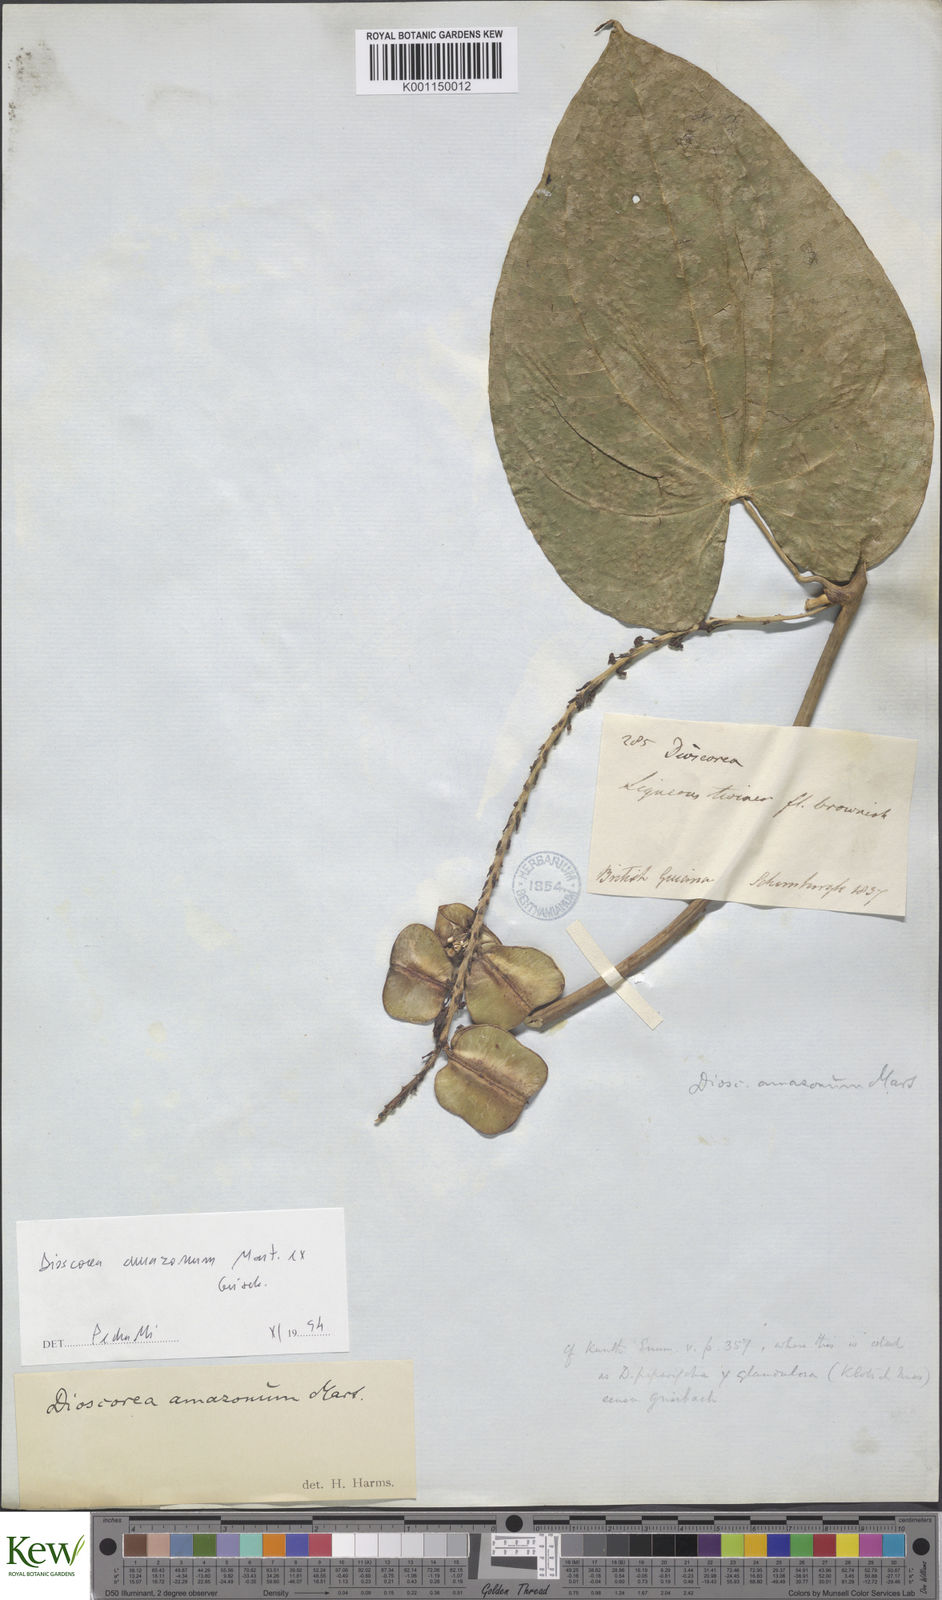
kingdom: Plantae
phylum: Tracheophyta
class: Liliopsida
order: Dioscoreales
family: Dioscoreaceae
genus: Dioscorea
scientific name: Dioscorea amazonum
